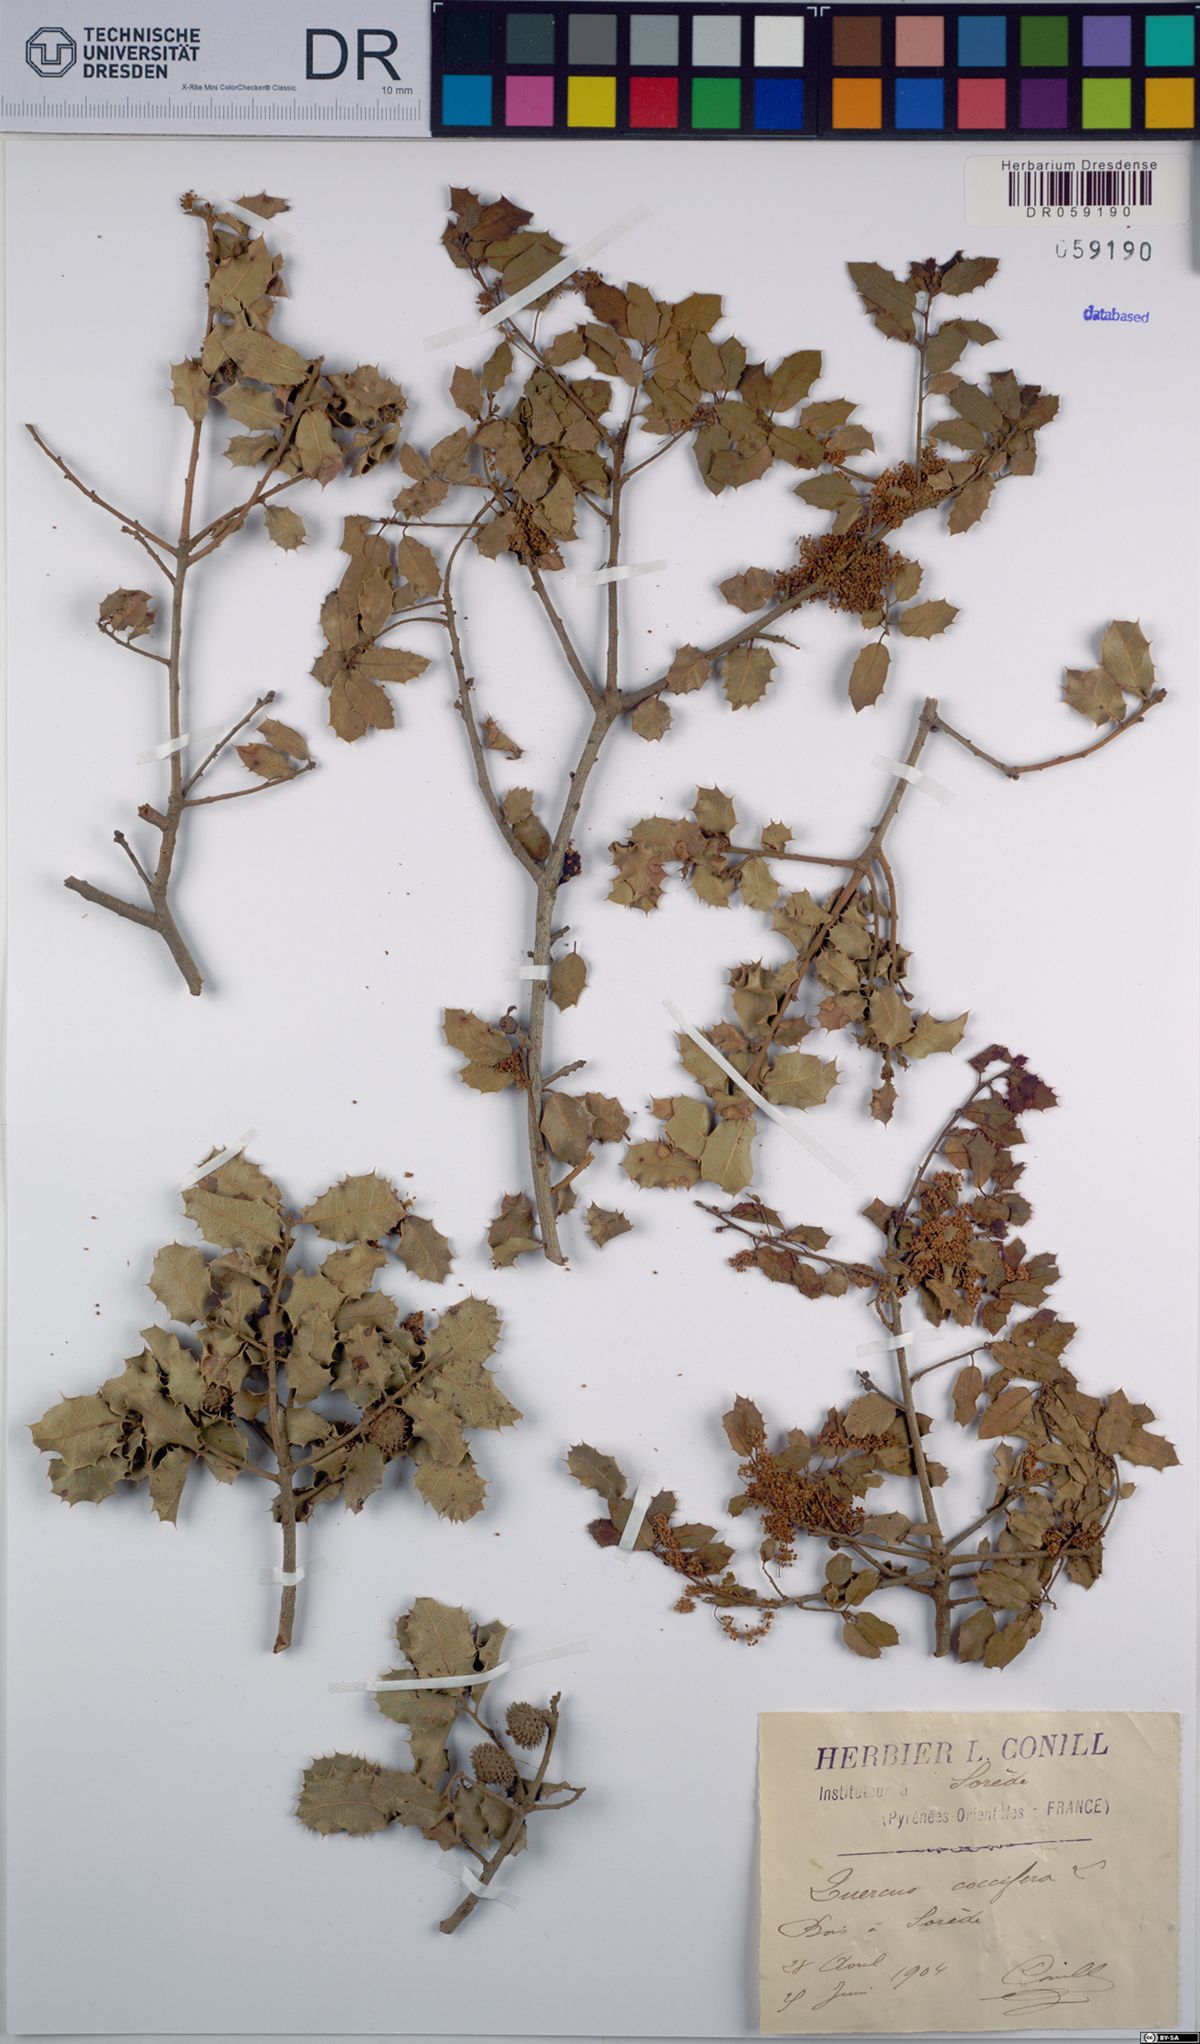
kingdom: Plantae
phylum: Tracheophyta
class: Magnoliopsida
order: Fagales
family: Fagaceae
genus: Quercus
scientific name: Quercus coccifera
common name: Kermes oak
